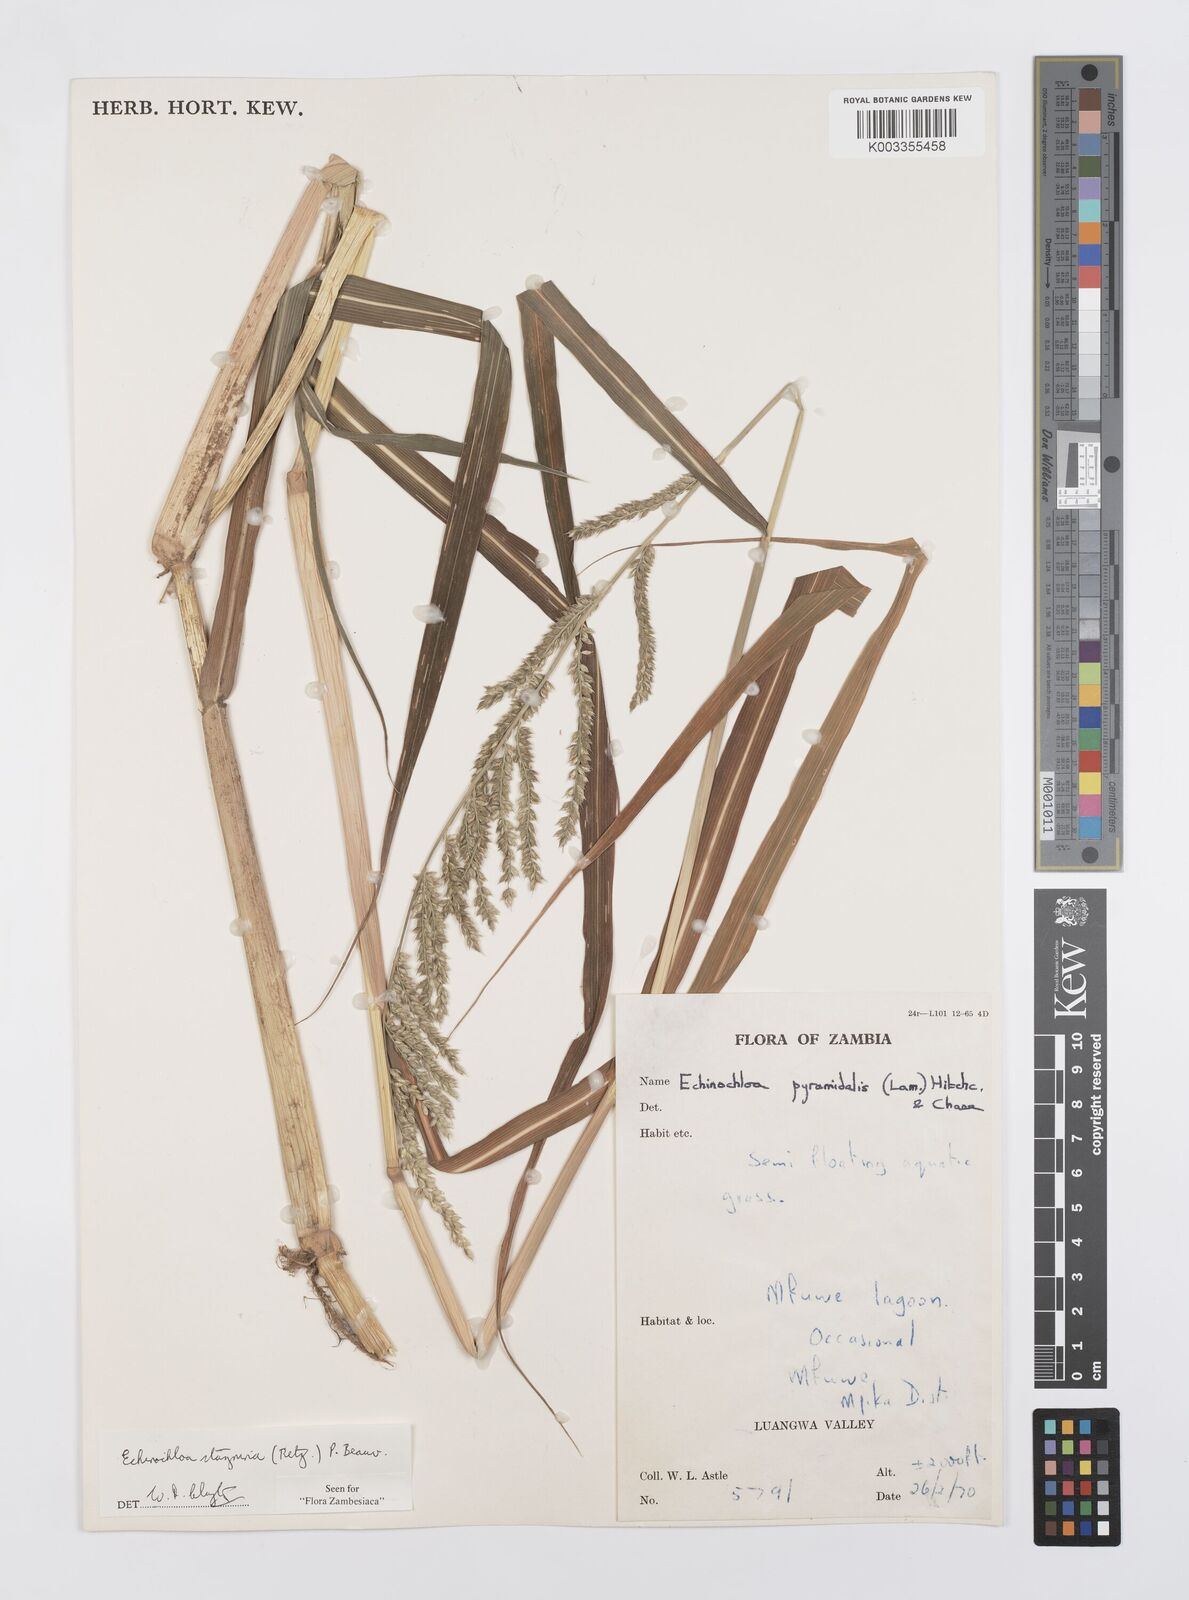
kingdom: Plantae
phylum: Tracheophyta
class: Liliopsida
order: Poales
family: Poaceae
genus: Echinochloa
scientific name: Echinochloa stagnina
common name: Burgu grass
